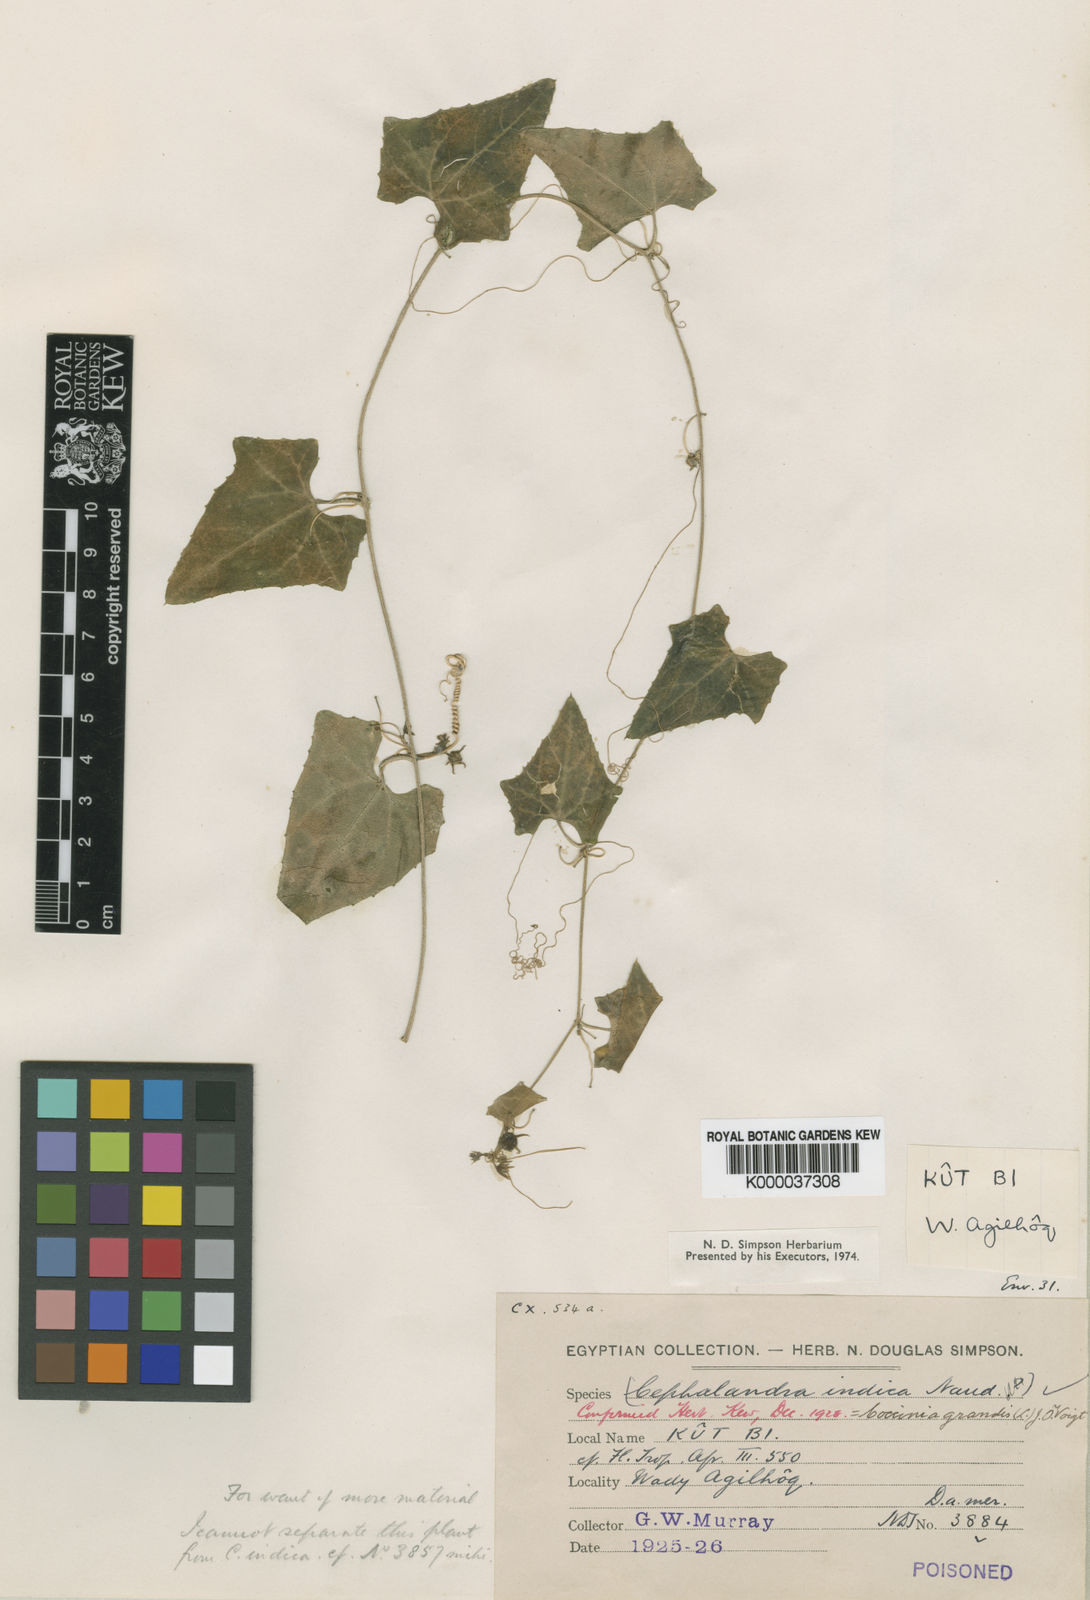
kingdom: Plantae
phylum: Tracheophyta
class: Magnoliopsida
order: Cucurbitales
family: Cucurbitaceae
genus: Coccinia
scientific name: Coccinia grandis
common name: Ivy gourd
